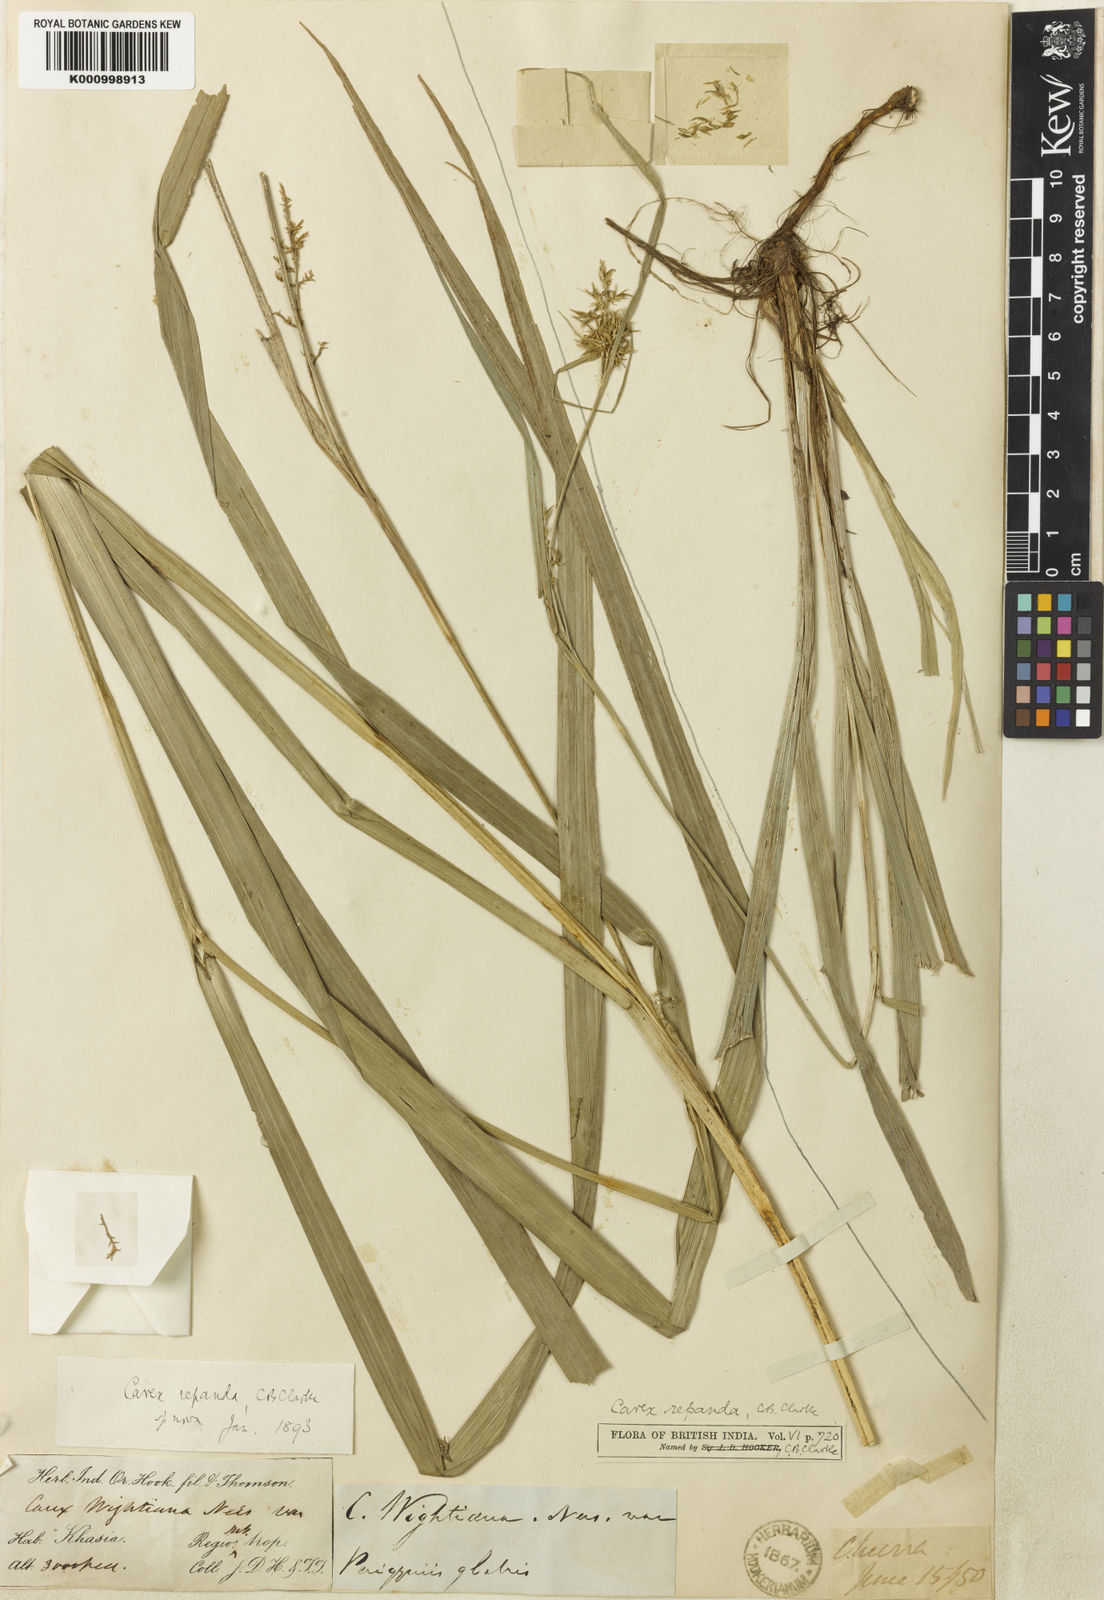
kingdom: Plantae
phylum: Tracheophyta
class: Liliopsida
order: Poales
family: Cyperaceae
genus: Carex
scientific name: Carex wightiana
